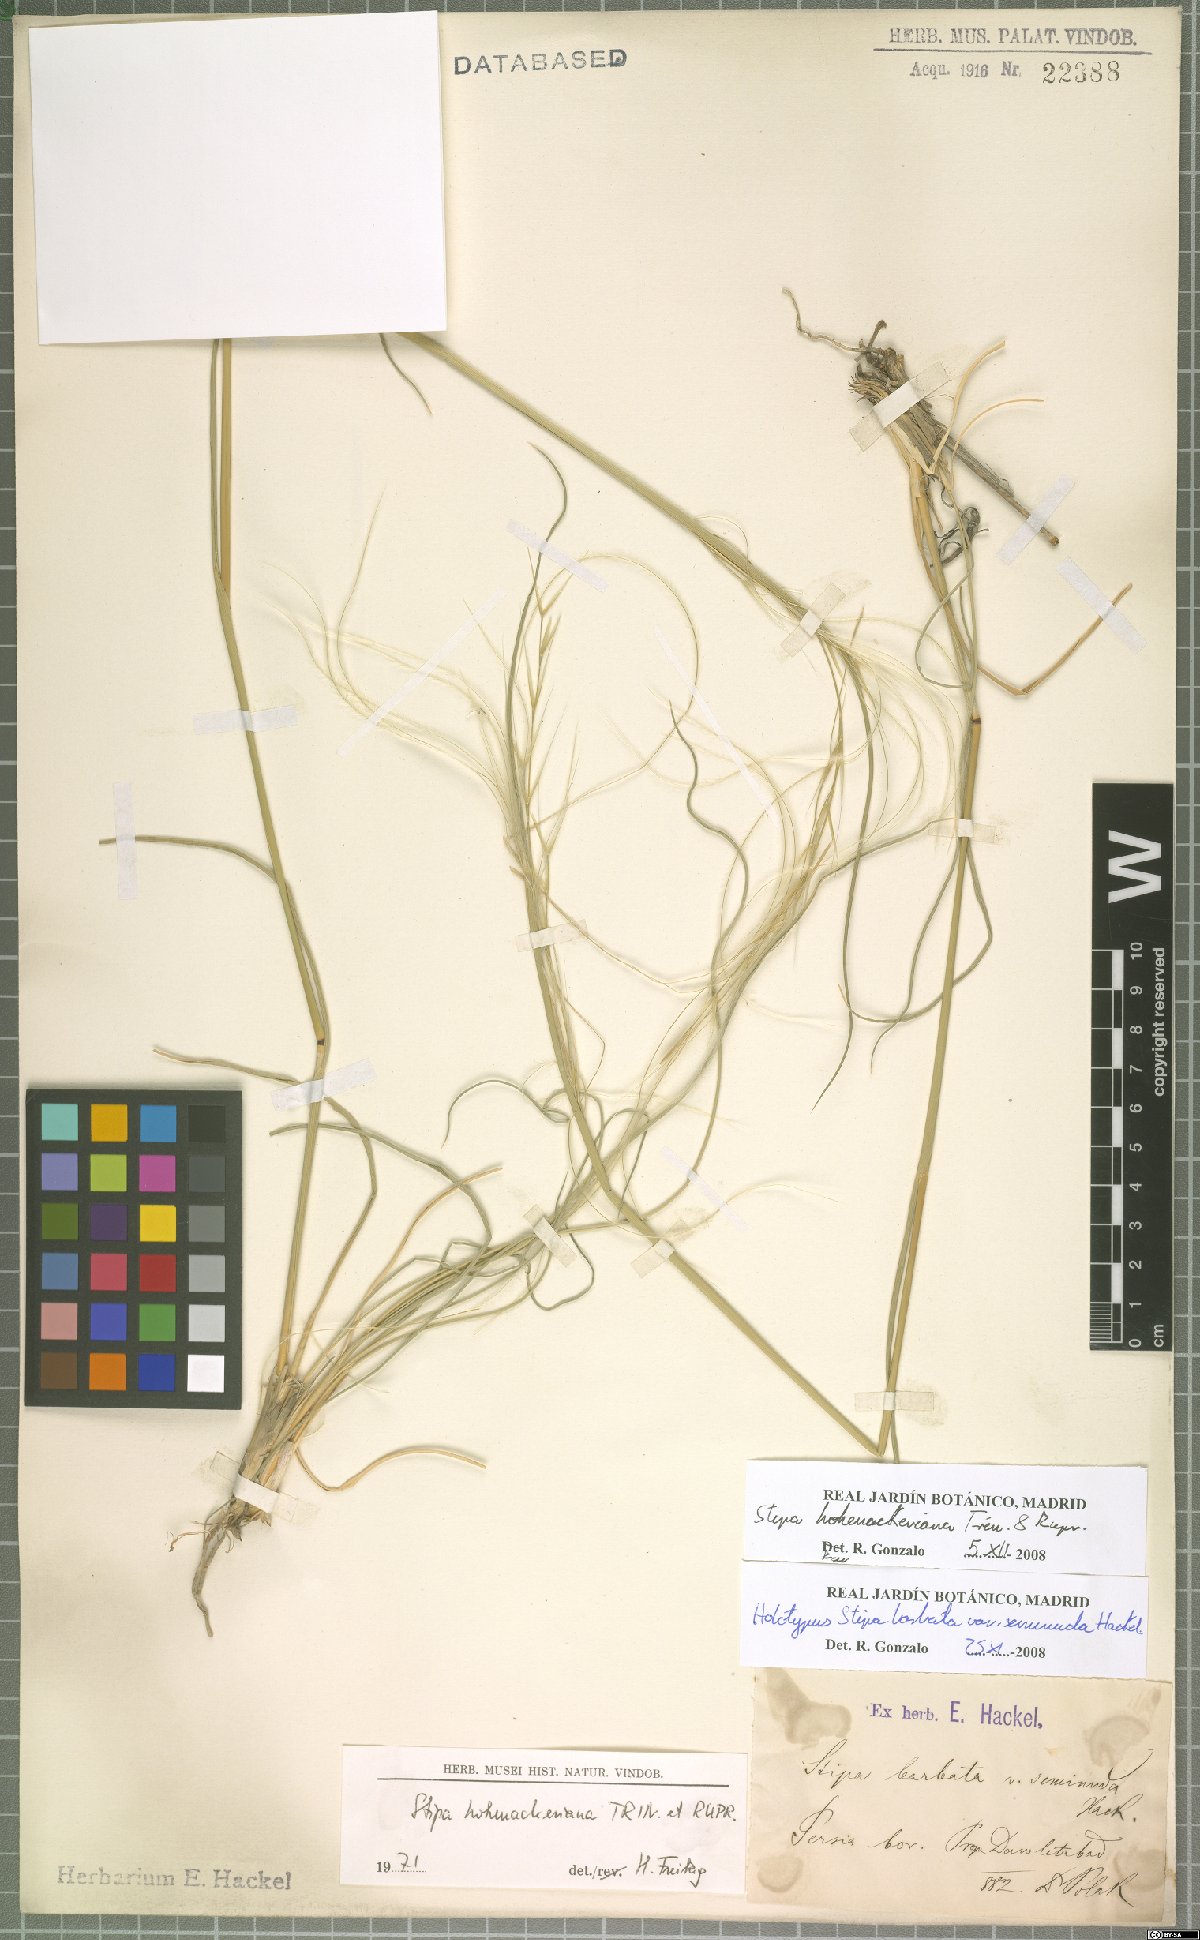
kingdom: Plantae
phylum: Tracheophyta
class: Liliopsida
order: Poales
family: Poaceae
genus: Stipa
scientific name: Stipa hohenackeriana
